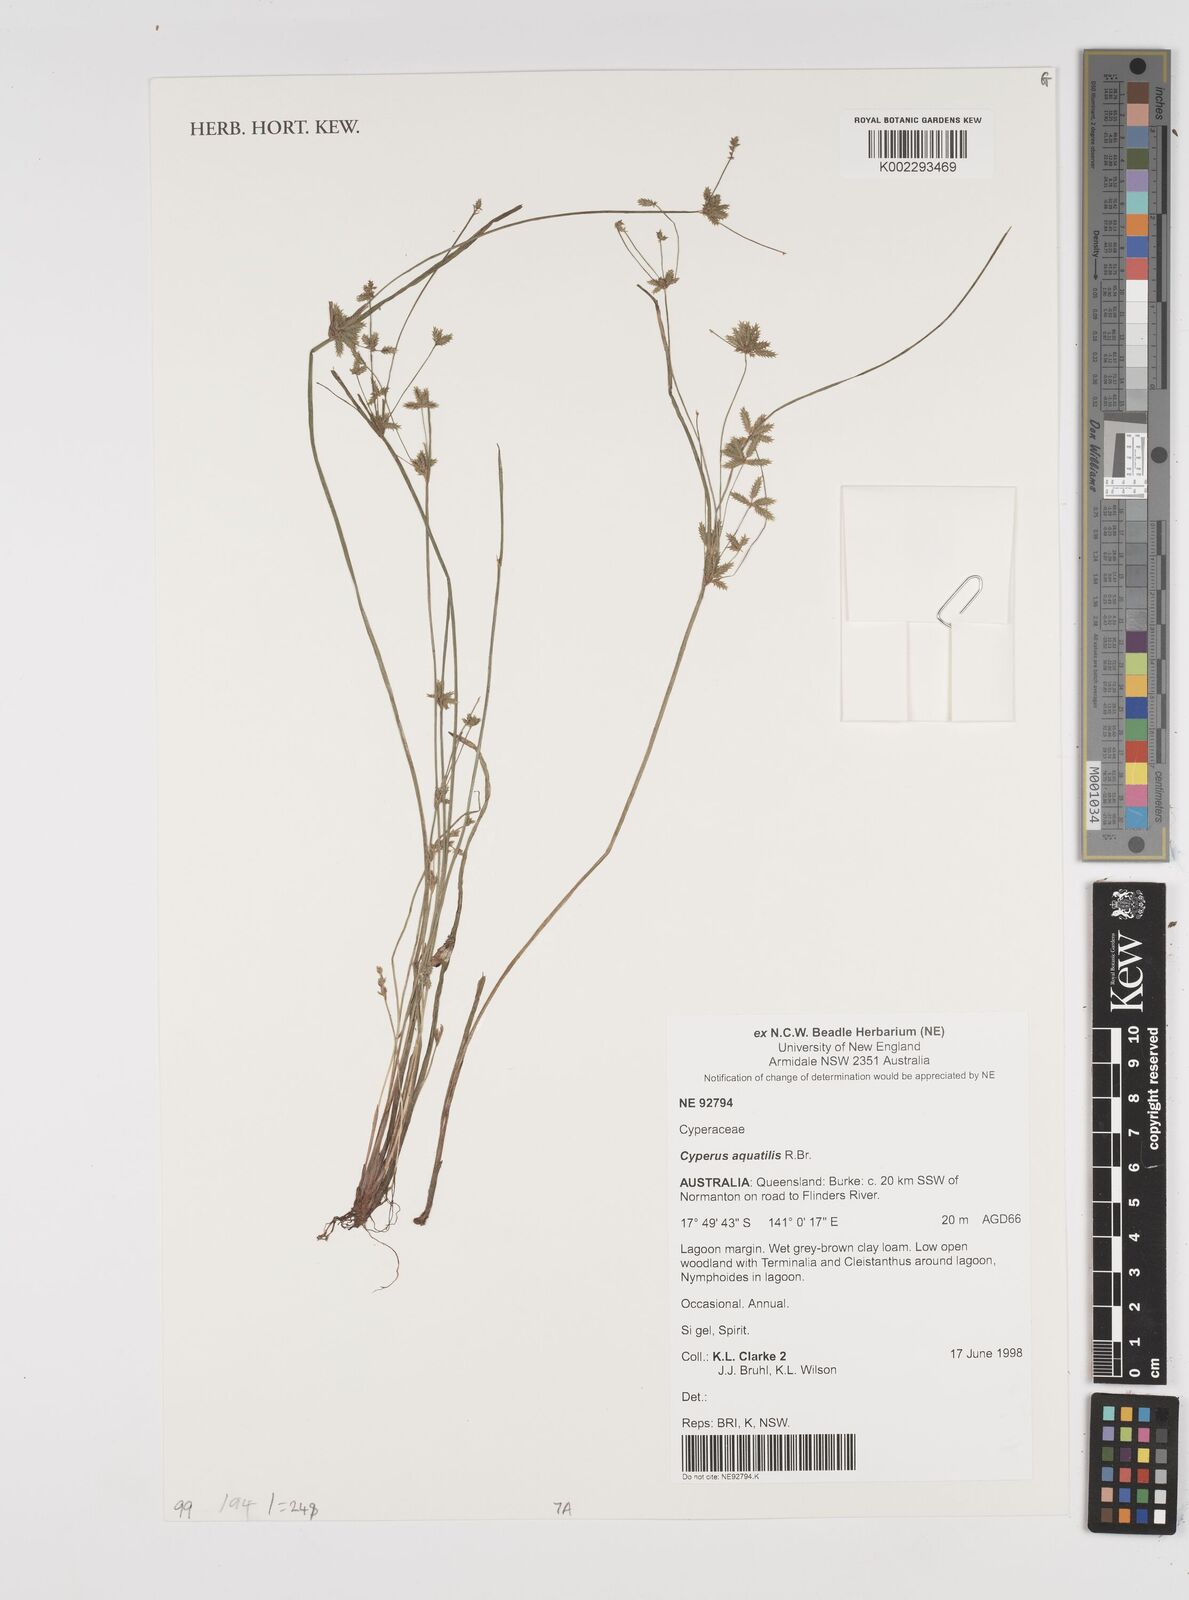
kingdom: Plantae
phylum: Tracheophyta
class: Liliopsida
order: Poales
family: Cyperaceae
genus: Cyperus
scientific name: Cyperus trinervis
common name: Australian flatsedge
